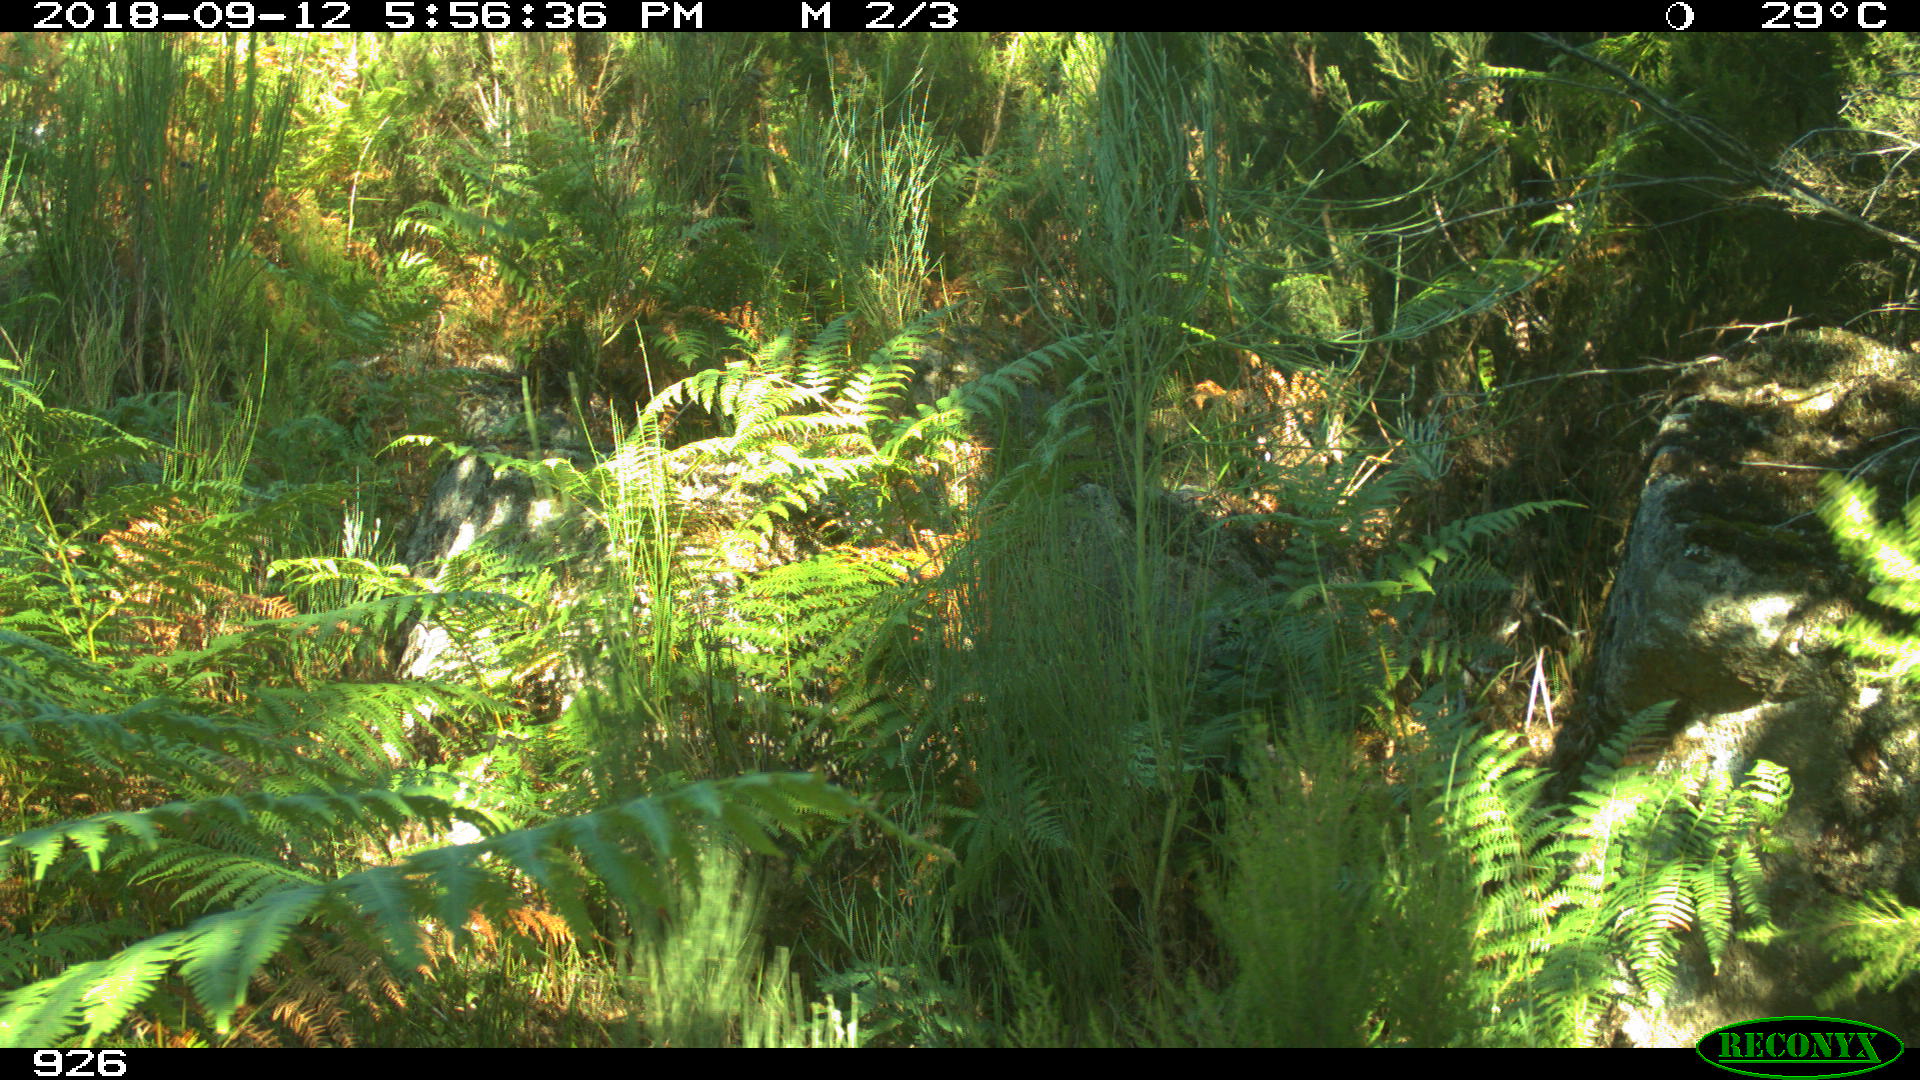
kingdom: Animalia
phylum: Chordata
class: Mammalia
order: Artiodactyla
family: Bovidae
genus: Bos
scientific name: Bos taurus
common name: Domesticated cattle
